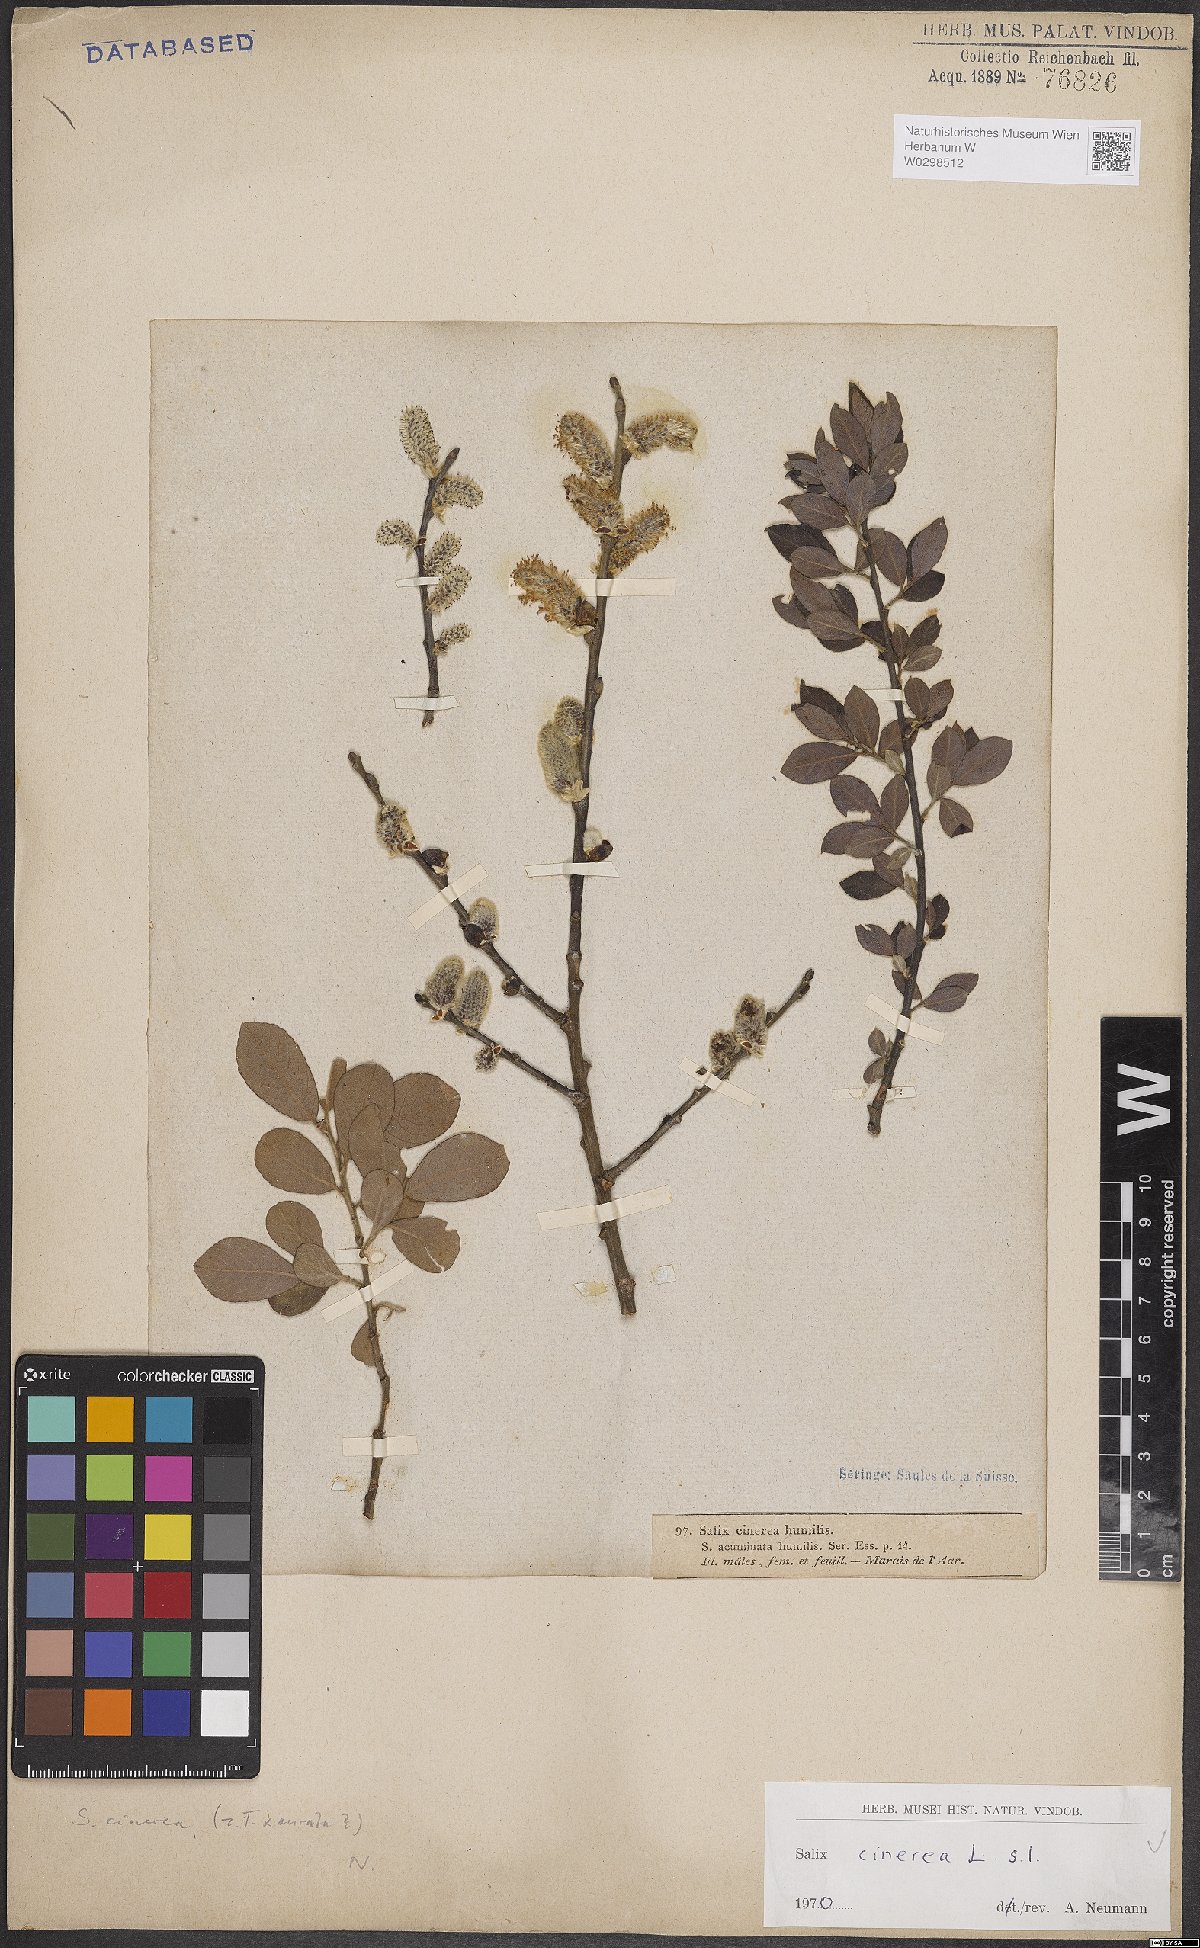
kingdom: Plantae
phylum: Tracheophyta
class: Magnoliopsida
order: Malpighiales
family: Salicaceae
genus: Salix
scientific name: Salix cinerea
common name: Common sallow
